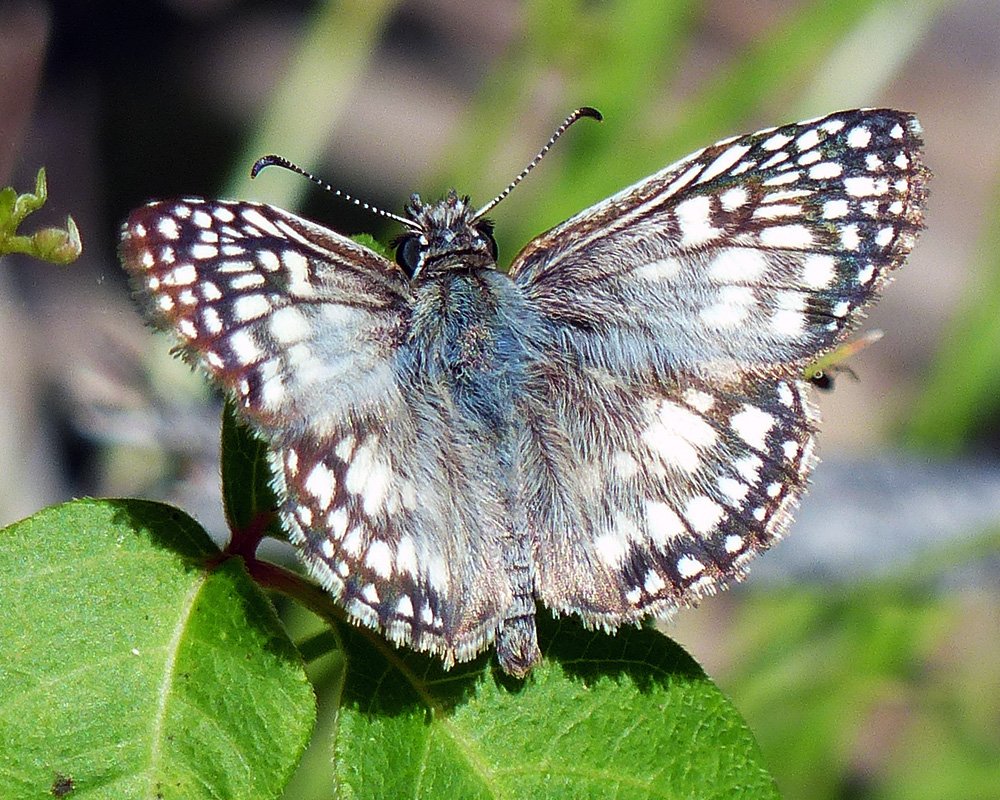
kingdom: Animalia
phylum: Arthropoda
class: Insecta
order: Lepidoptera
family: Hesperiidae
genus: Pyrgus
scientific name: Pyrgus oileus
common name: Tropical Checkered-Skipper
